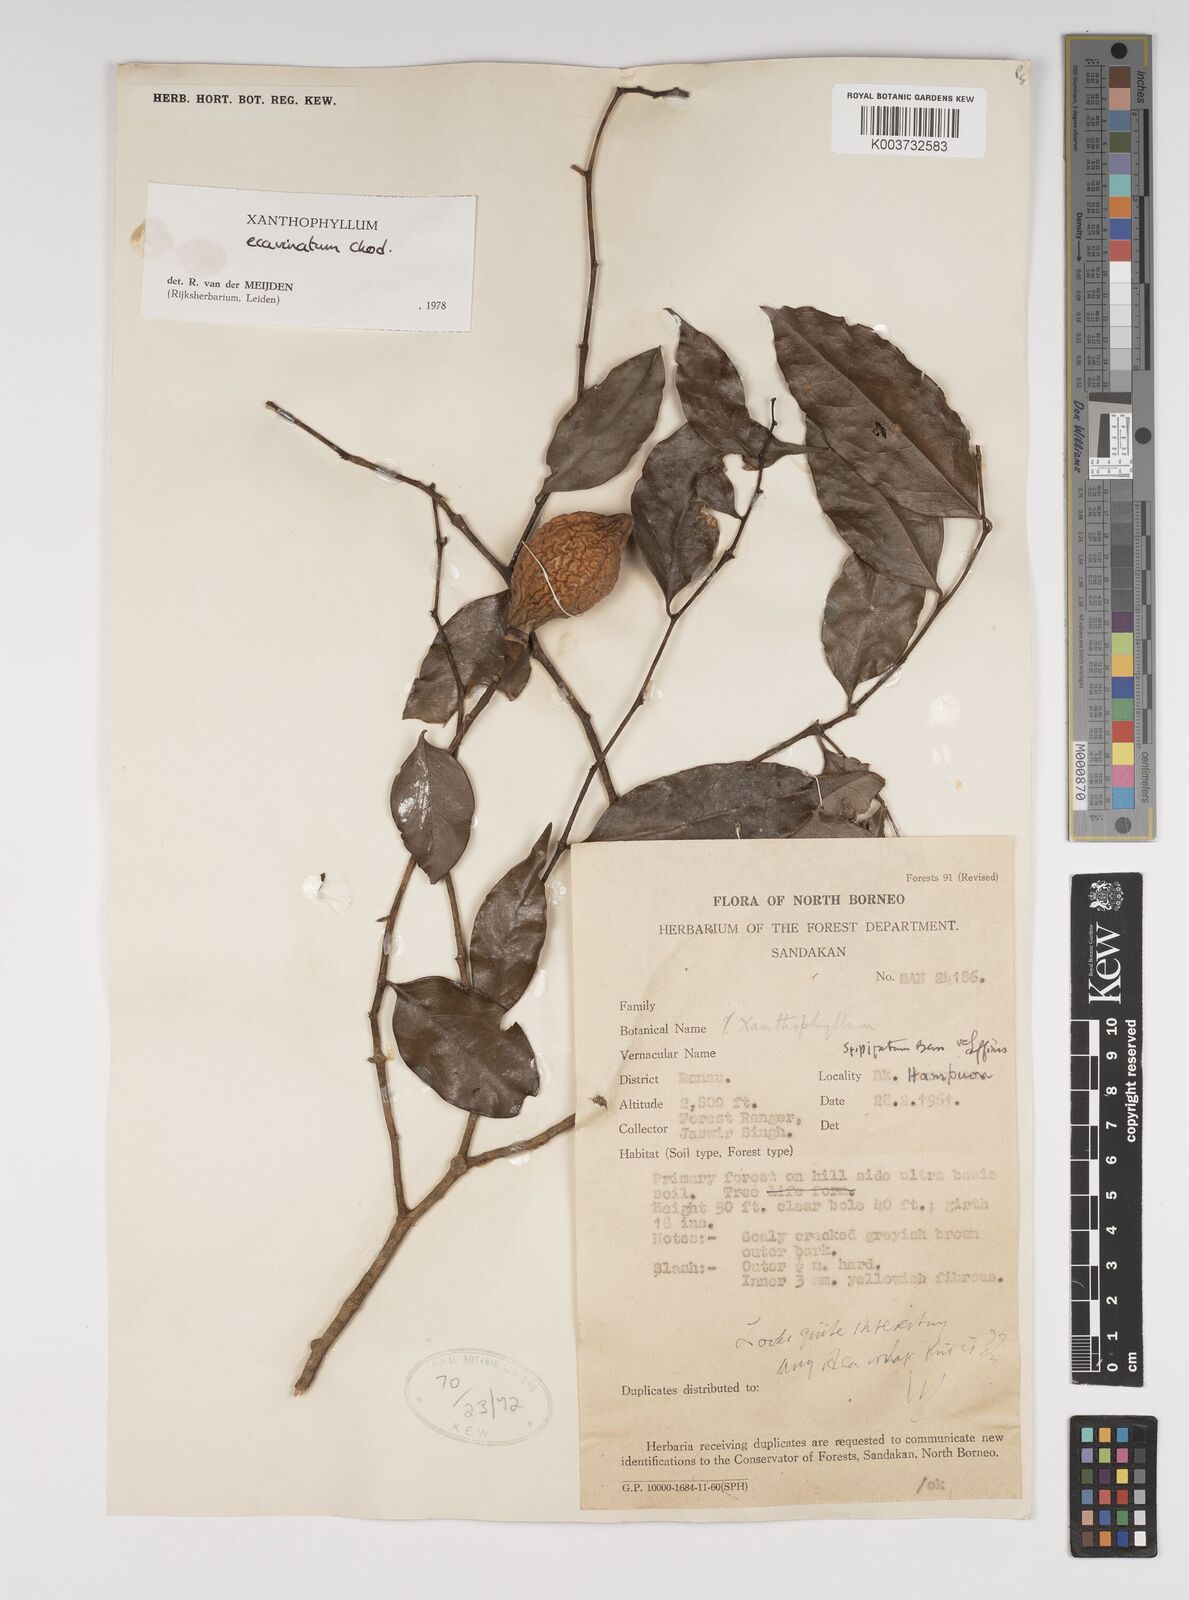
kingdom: Plantae
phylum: Tracheophyta
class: Magnoliopsida
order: Fabales
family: Polygalaceae
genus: Xanthophyllum
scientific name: Xanthophyllum ecarinatum
